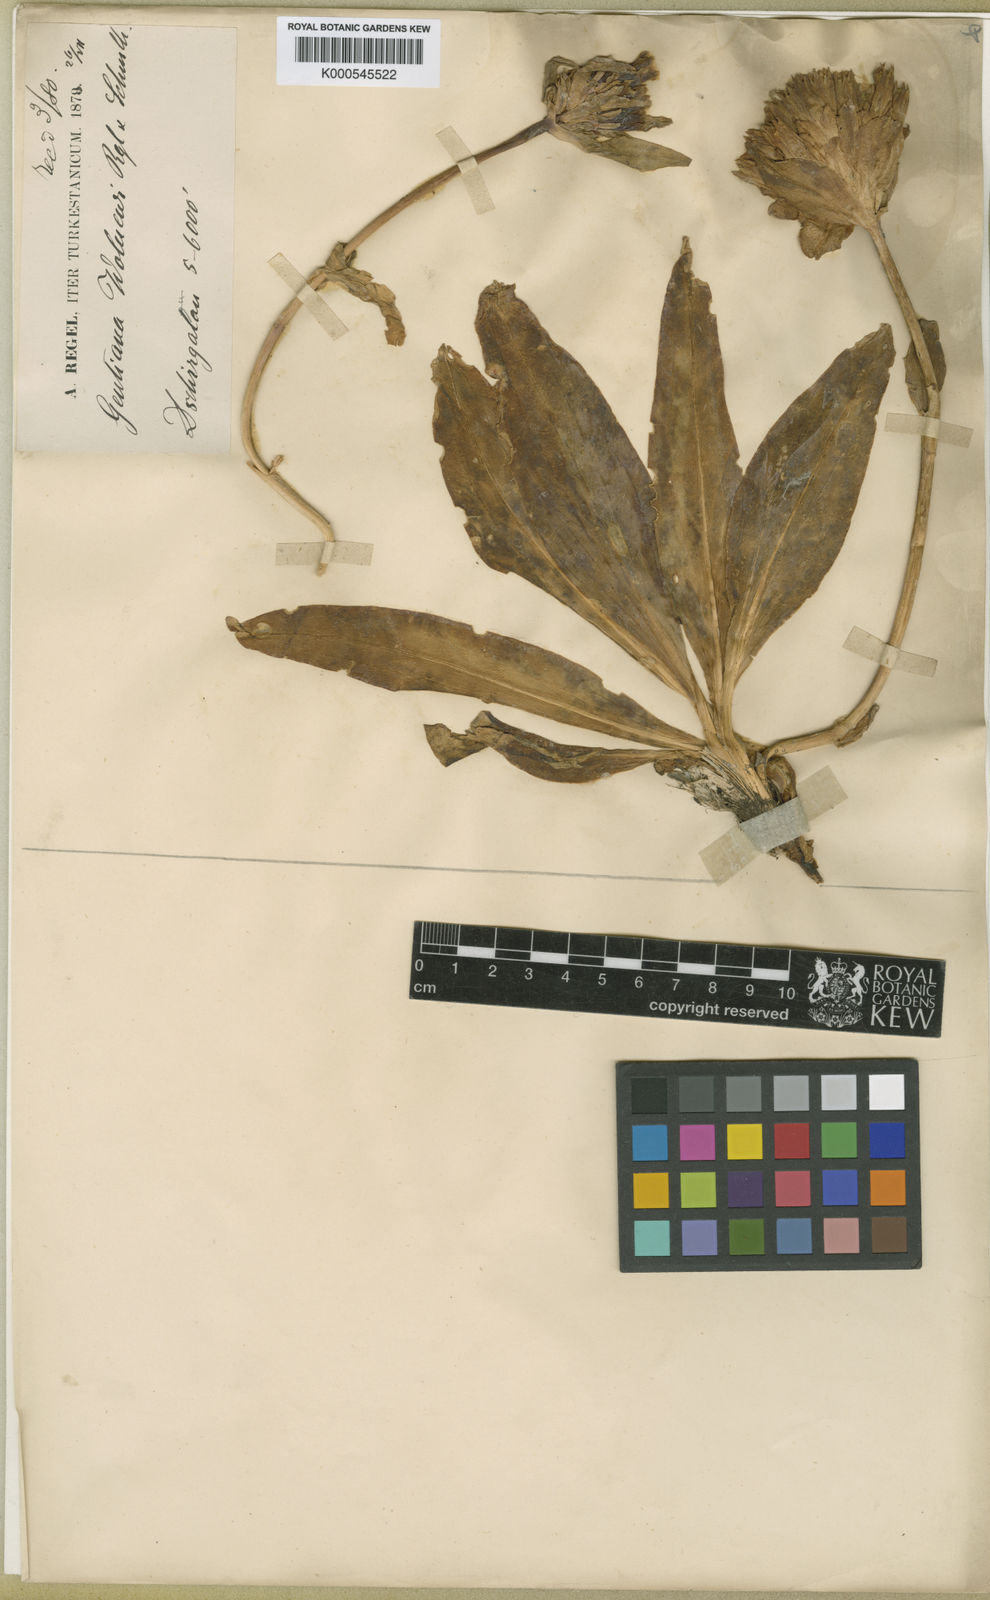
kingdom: Plantae
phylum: Tracheophyta
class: Magnoliopsida
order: Gentianales
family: Gentianaceae
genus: Gentiana
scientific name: Gentiana walujewii
